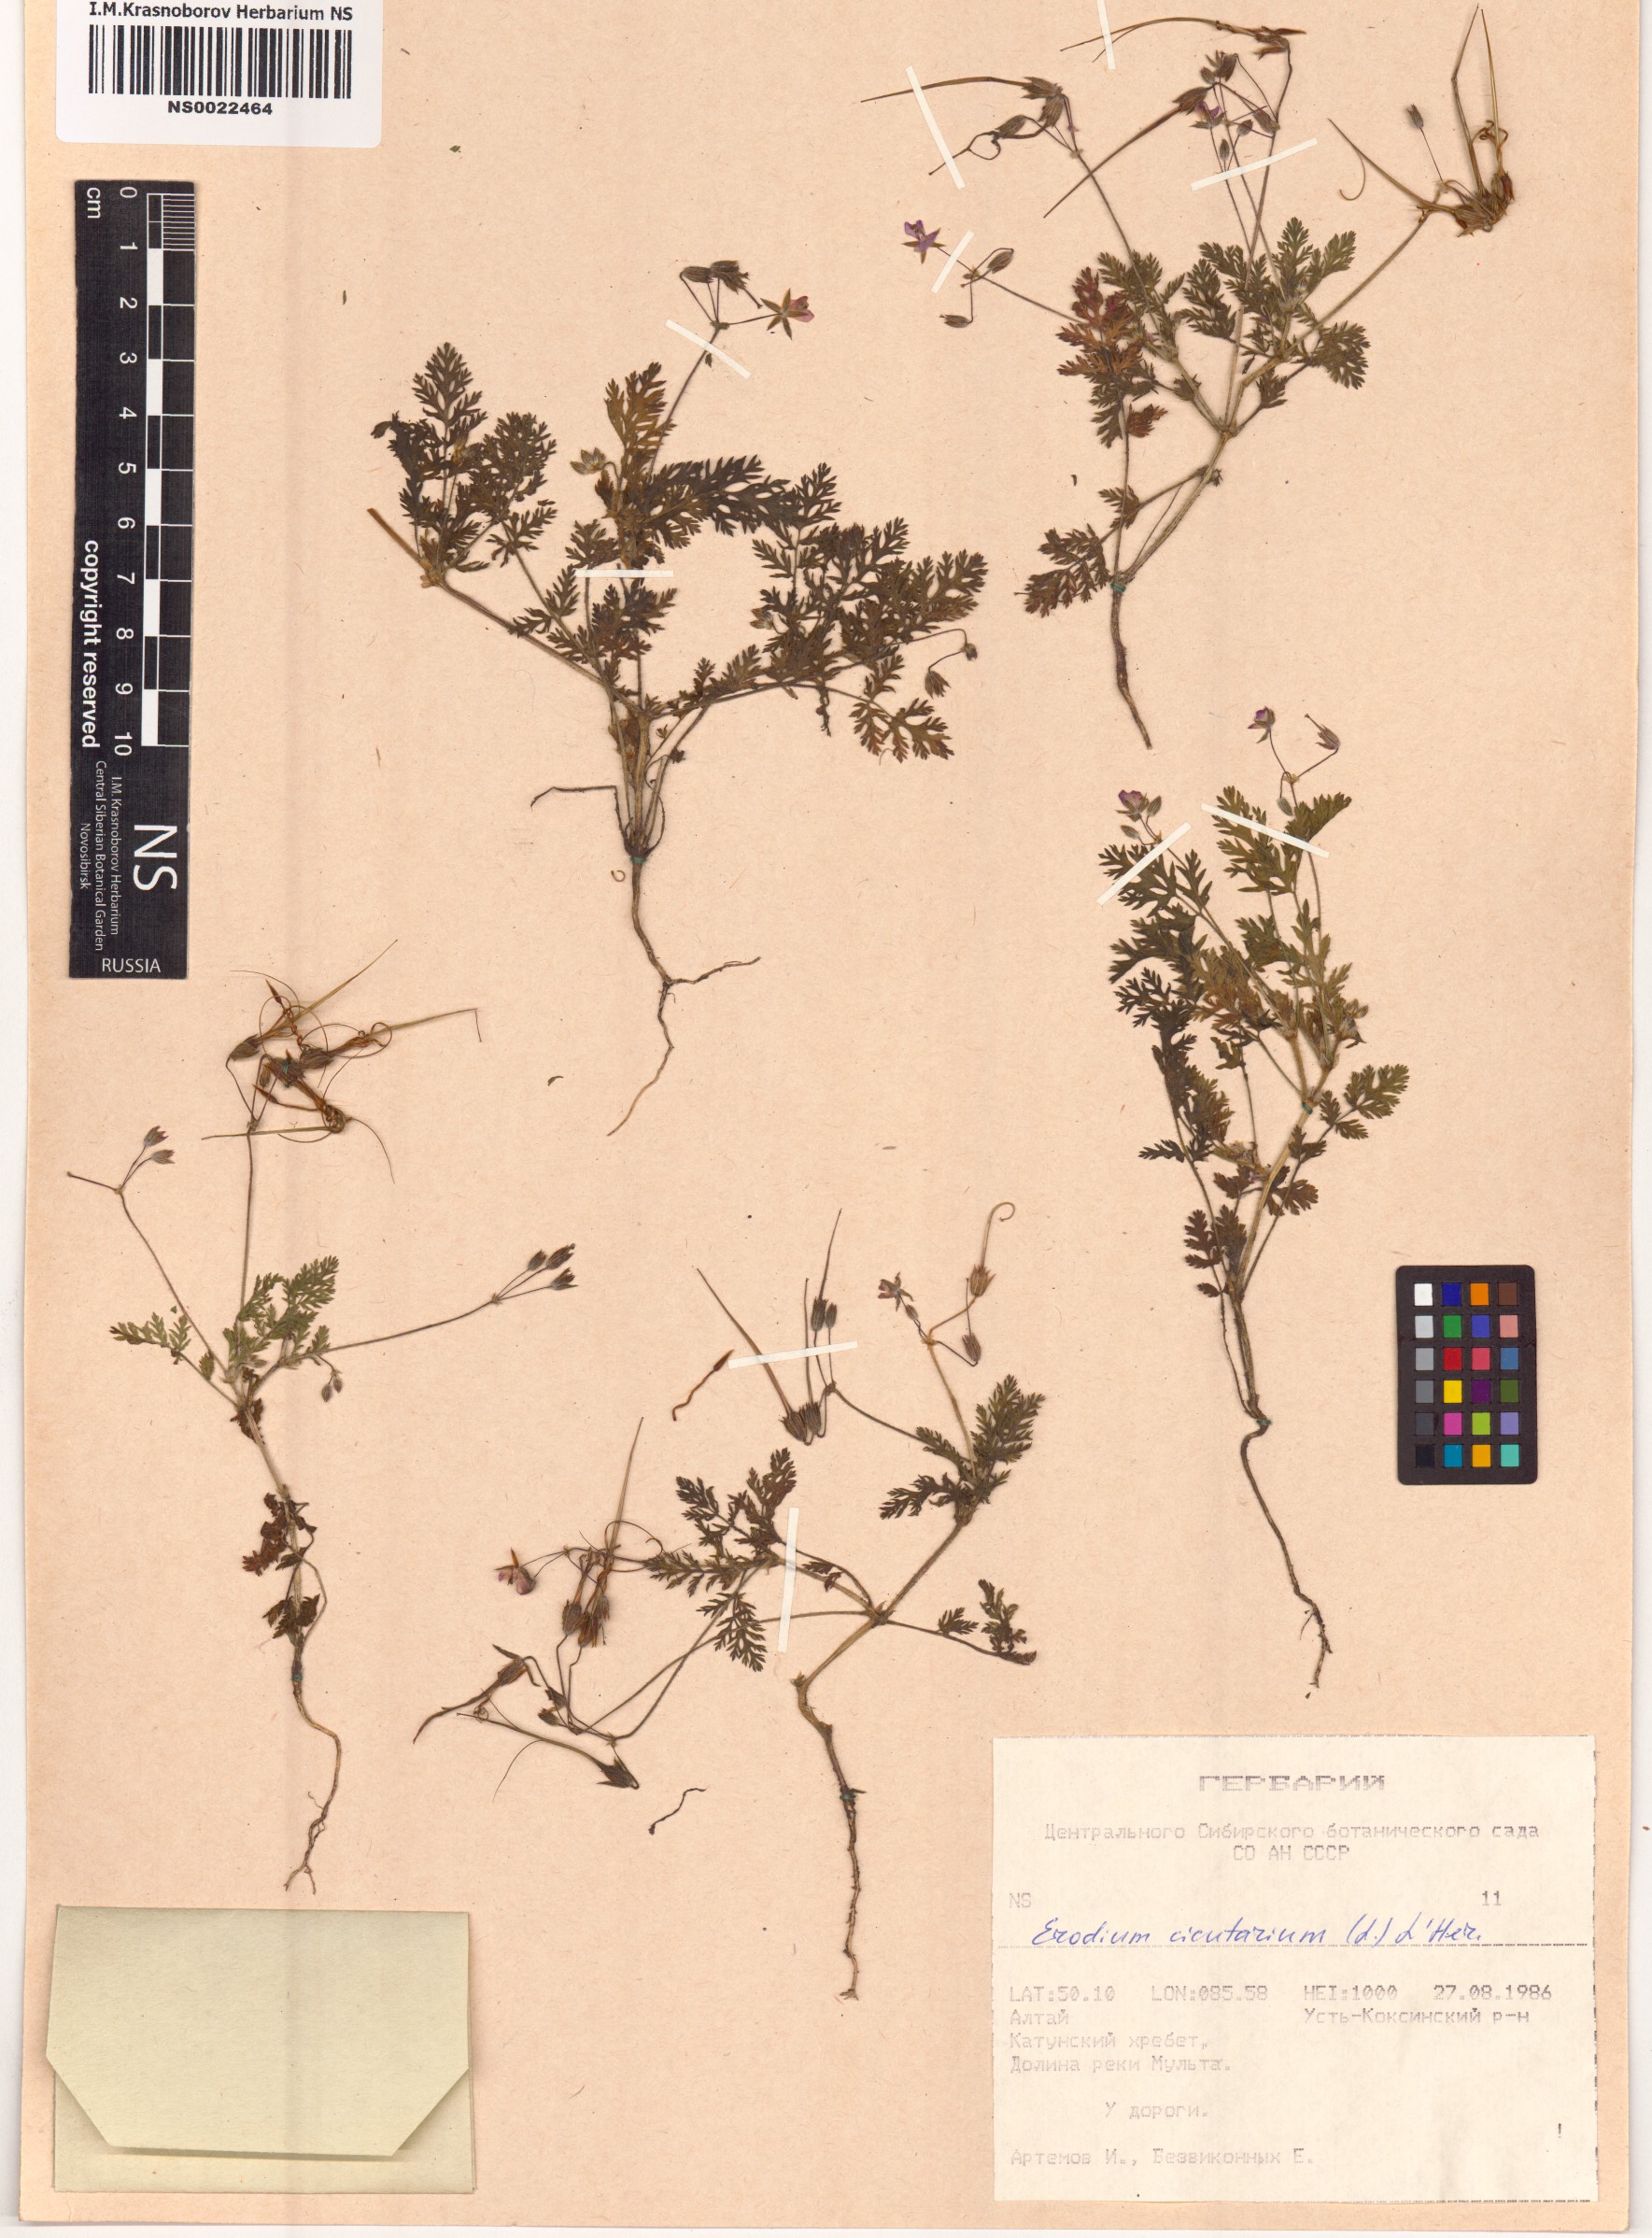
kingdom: Plantae
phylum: Tracheophyta
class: Magnoliopsida
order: Geraniales
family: Geraniaceae
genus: Erodium
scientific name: Erodium cicutarium
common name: Common stork's-bill
